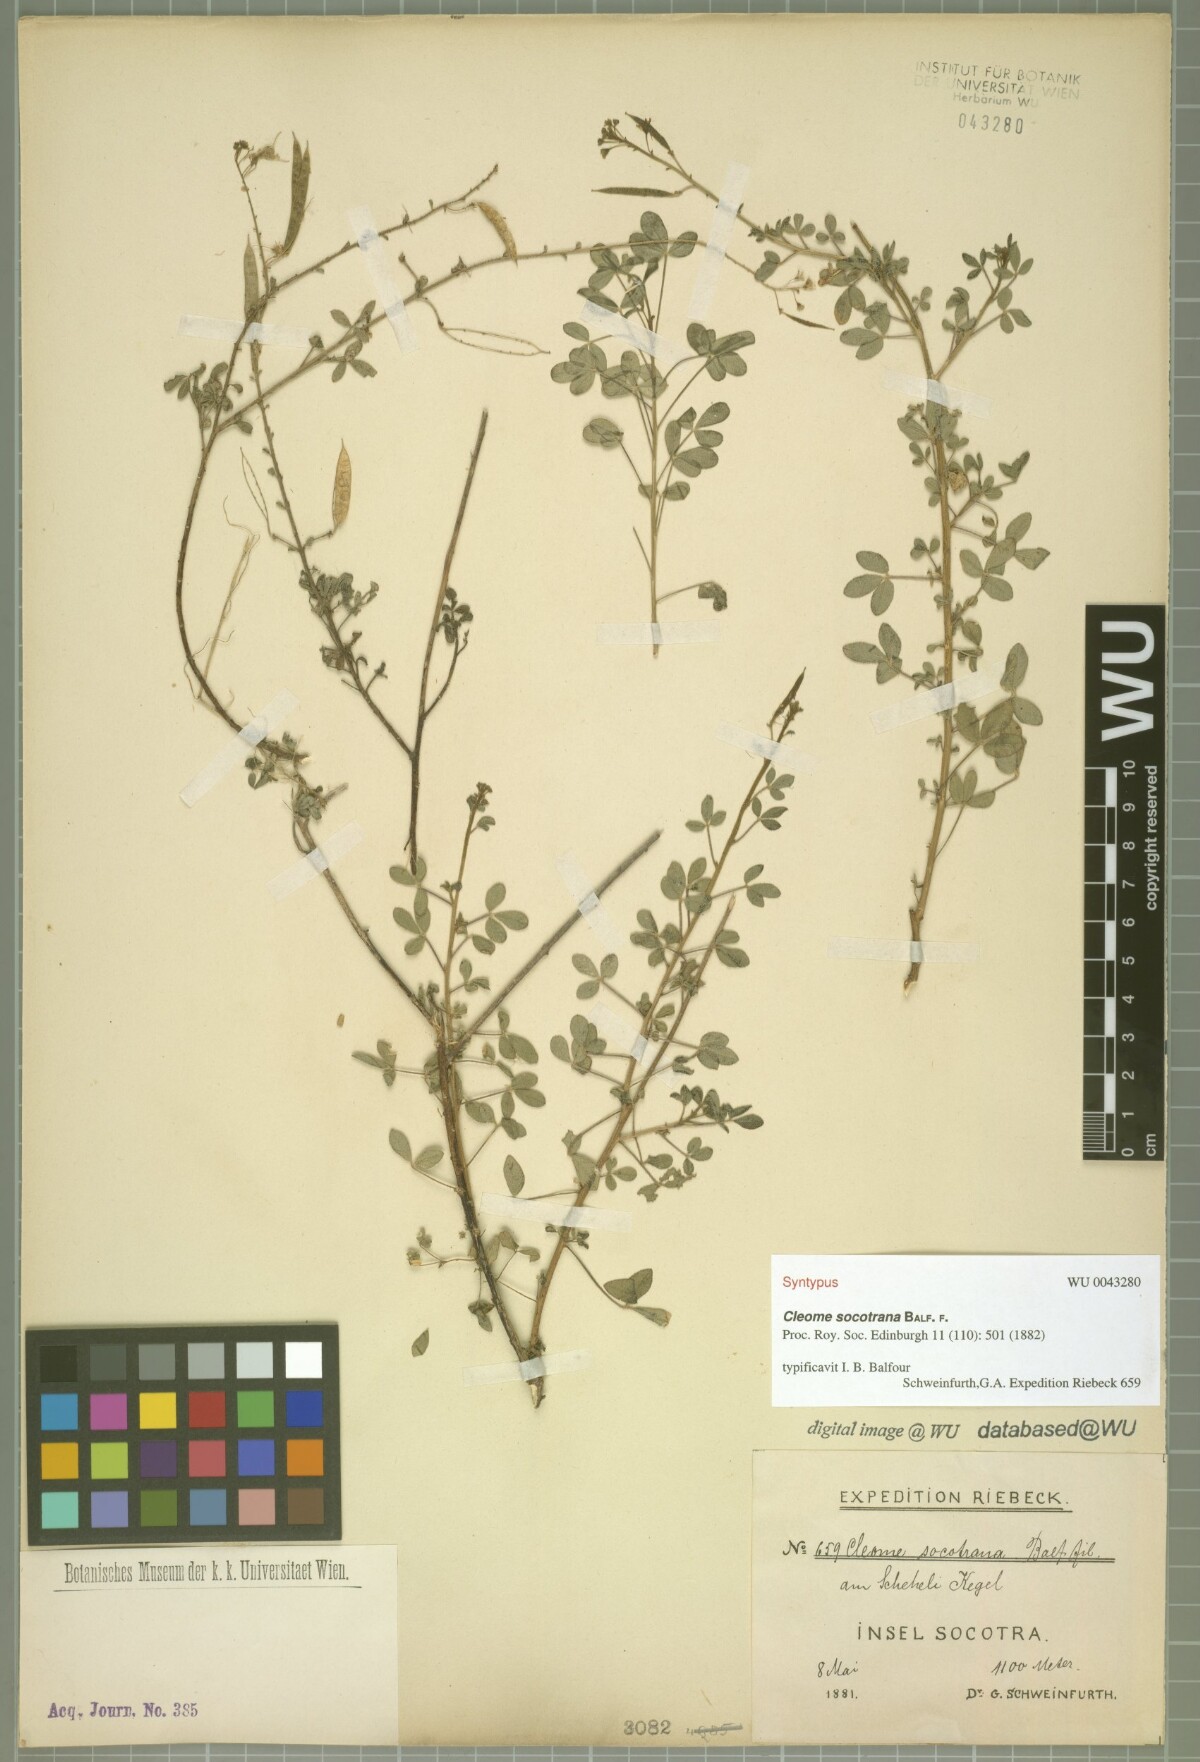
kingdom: Plantae
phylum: Tracheophyta
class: Magnoliopsida
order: Brassicales
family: Cleomaceae
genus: Cleome
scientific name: Cleome socotrana
